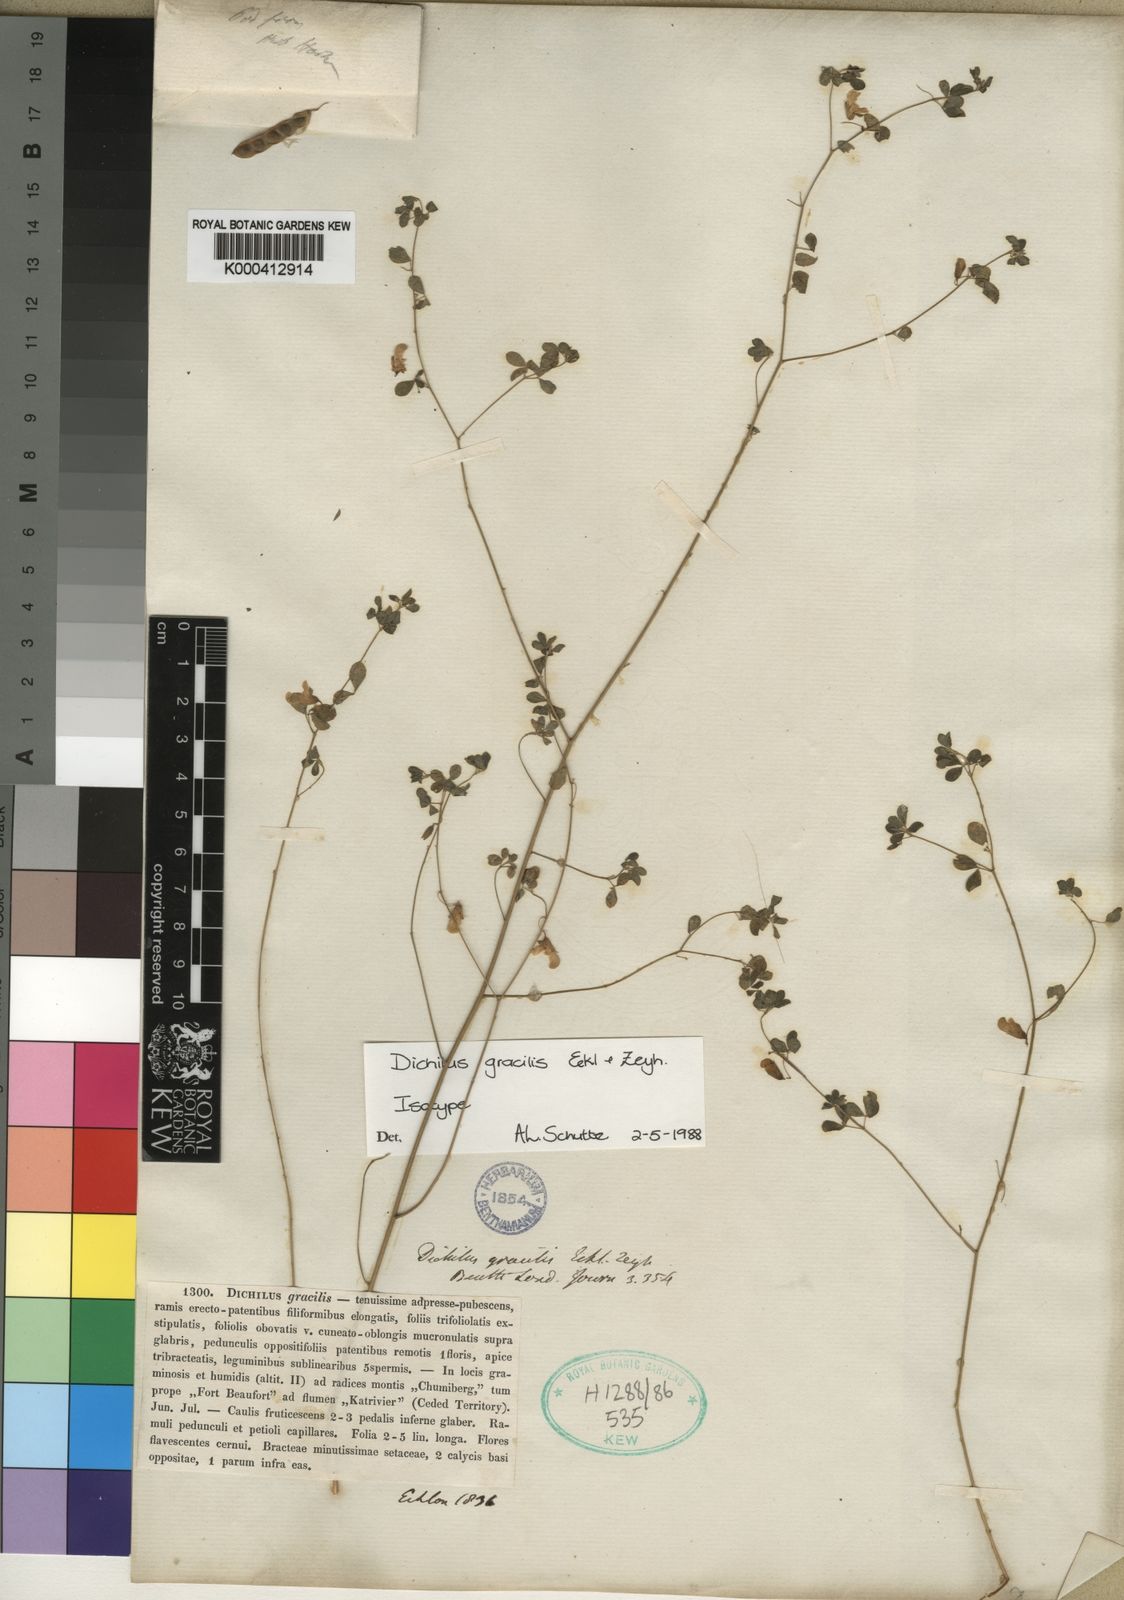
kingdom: Plantae
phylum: Tracheophyta
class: Magnoliopsida
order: Fabales
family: Fabaceae
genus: Dichilus
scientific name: Dichilus gracilis
